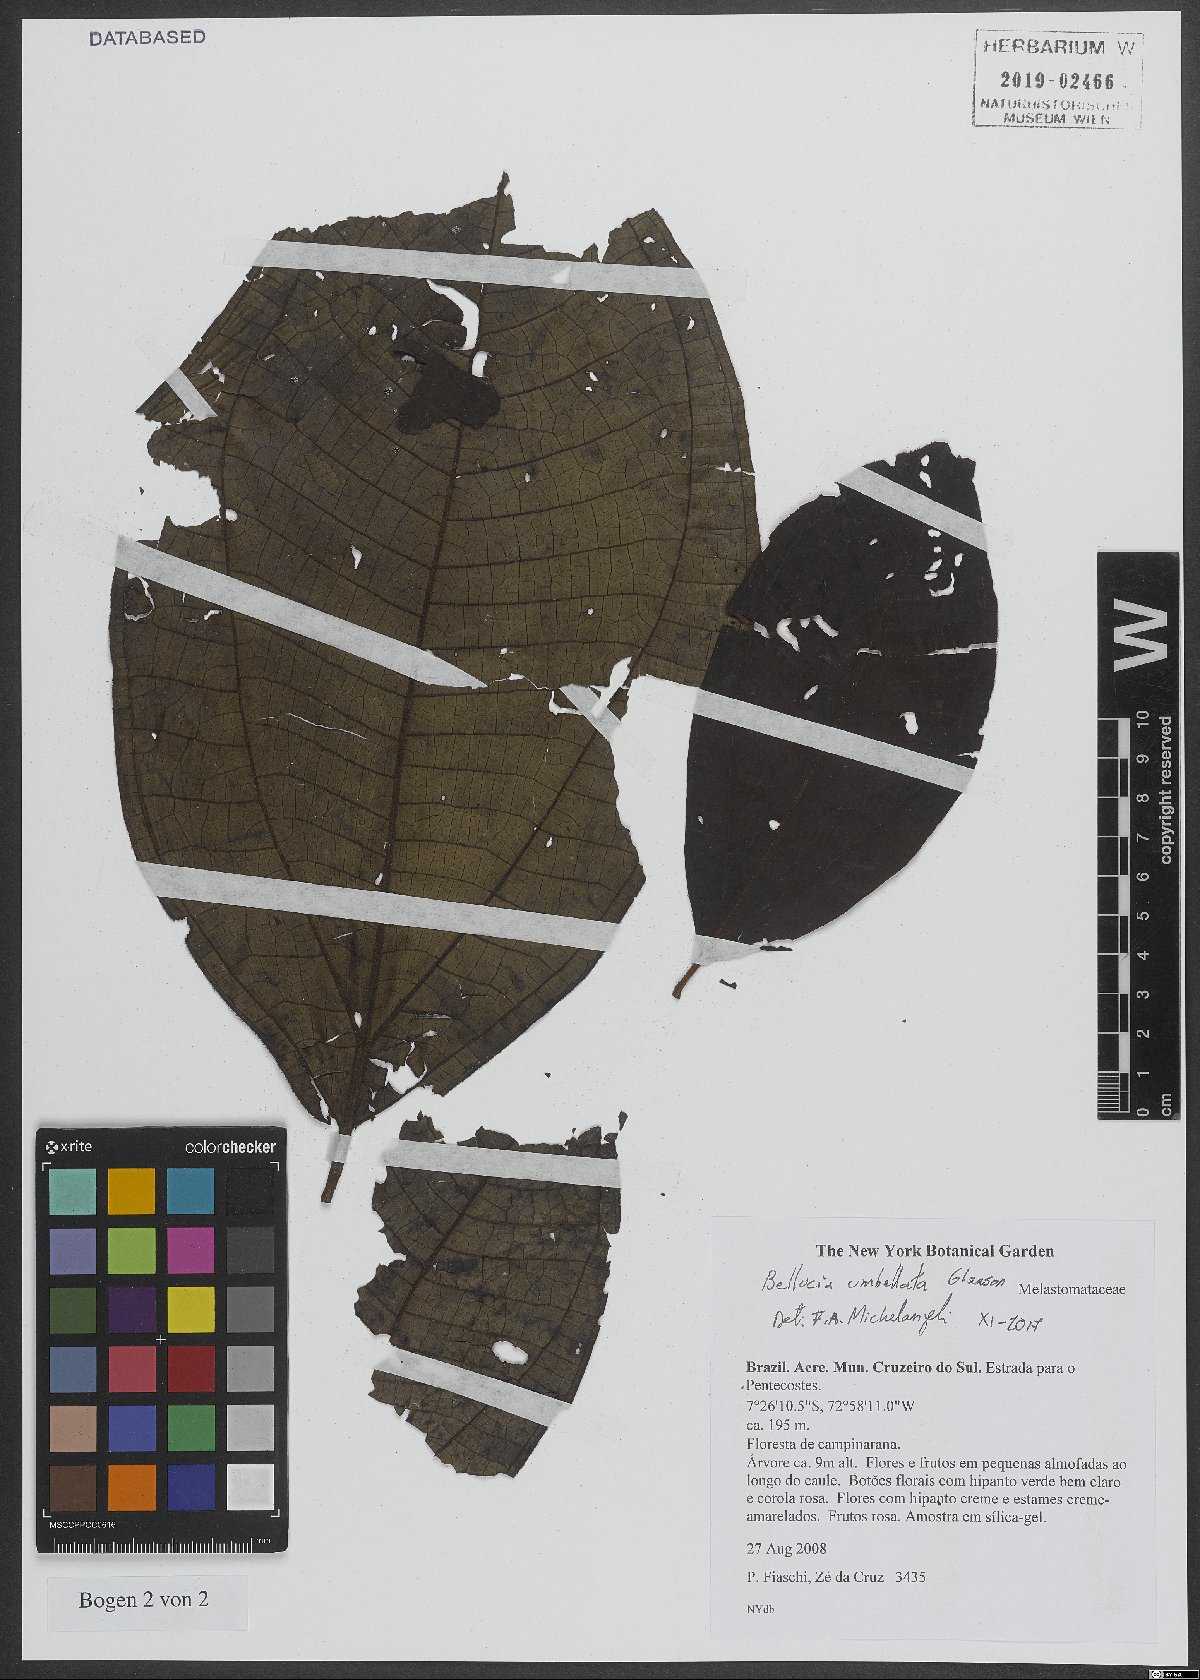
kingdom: Plantae
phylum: Tracheophyta
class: Magnoliopsida
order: Myrtales
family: Melastomataceae
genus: Bellucia
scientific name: Bellucia umbellata
